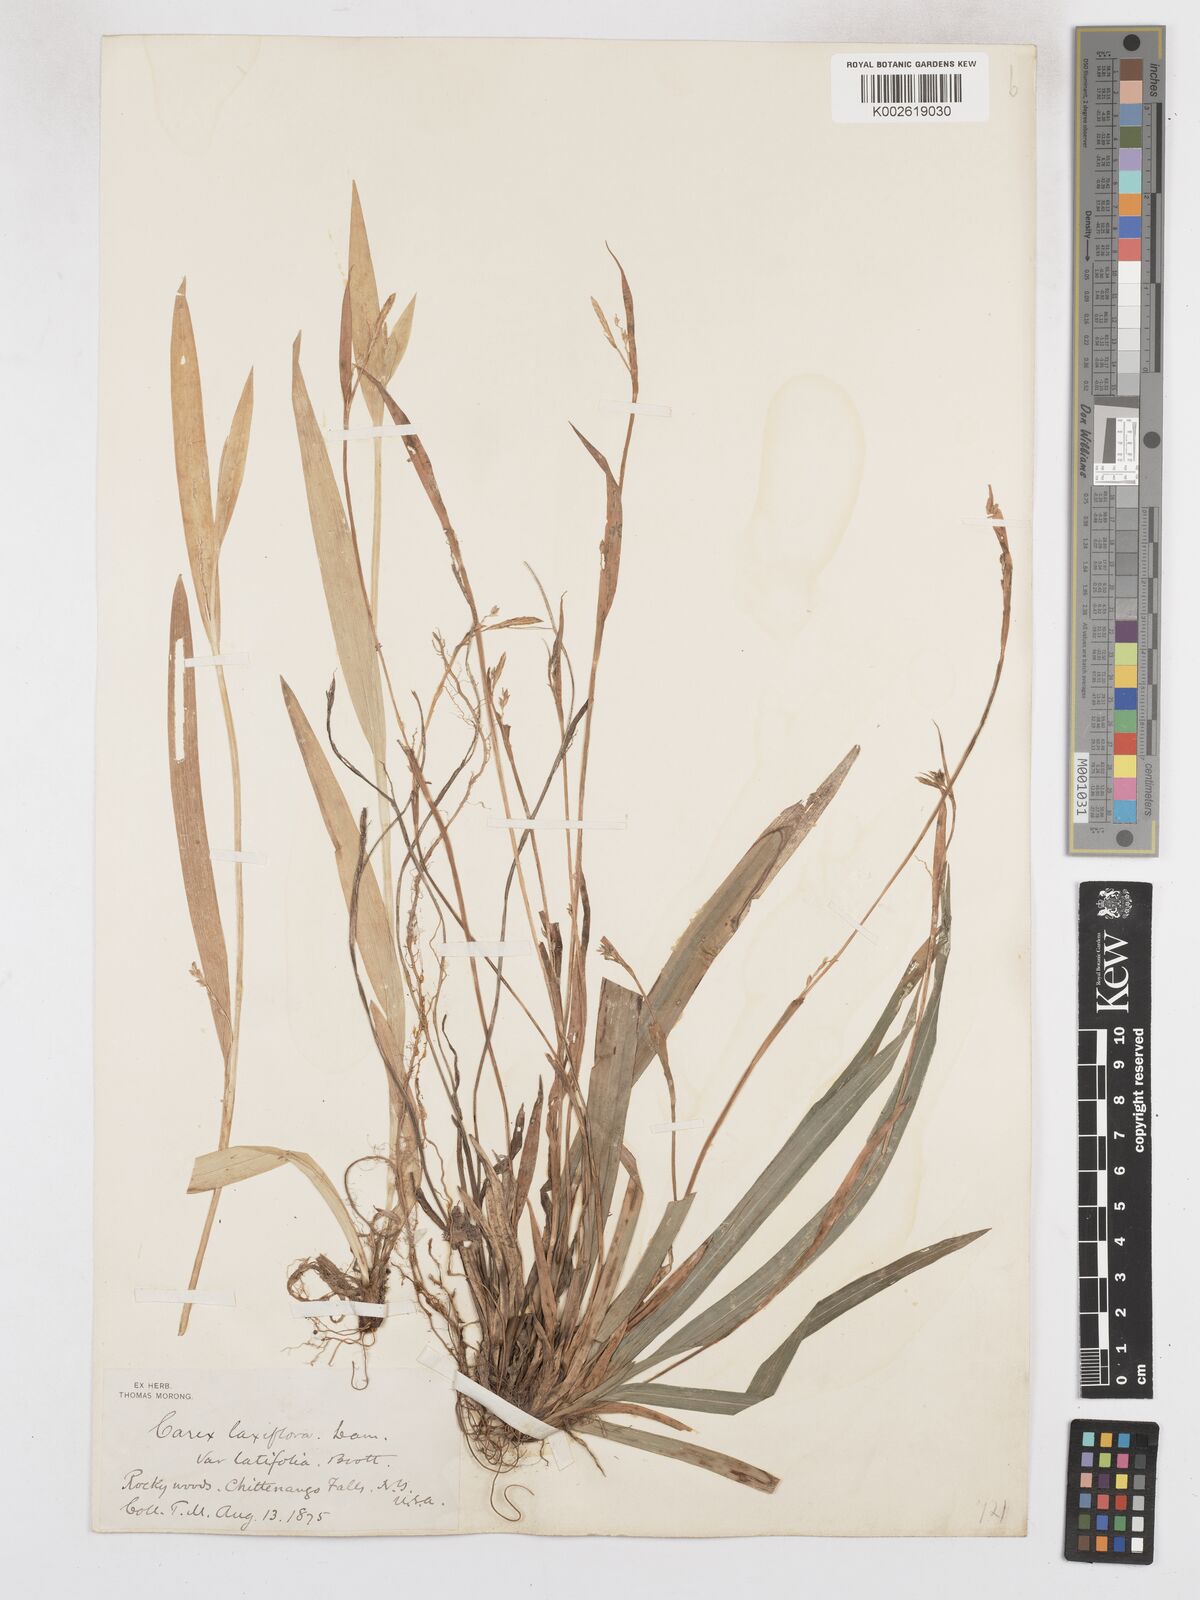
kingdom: Plantae
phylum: Tracheophyta
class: Liliopsida
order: Poales
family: Cyperaceae
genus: Carex
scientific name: Carex albursina
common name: Blunt-scale wood sedge
